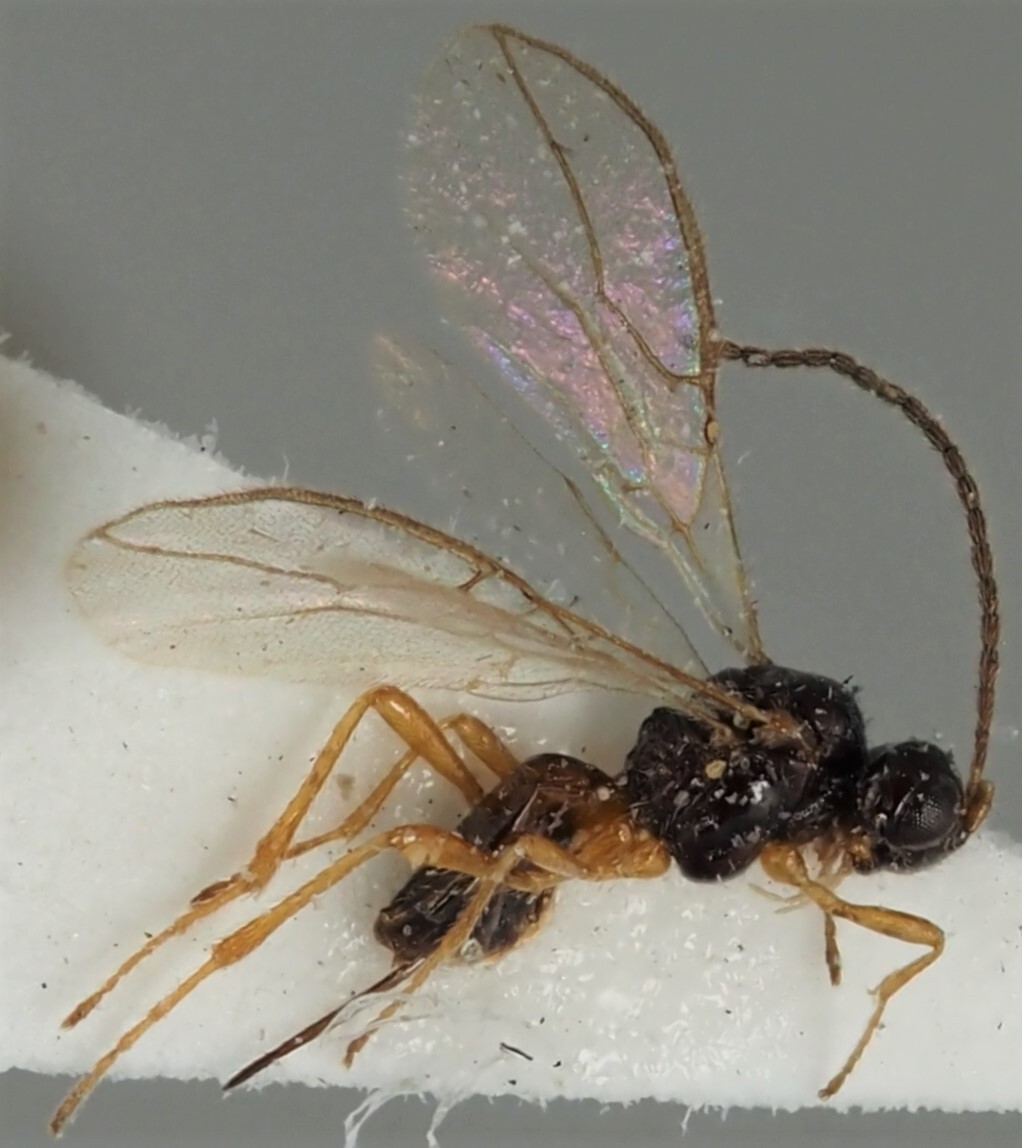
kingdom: Animalia
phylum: Arthropoda
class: Insecta
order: Hymenoptera
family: Braconidae
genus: Dinotrema
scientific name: Dinotrema callidium
